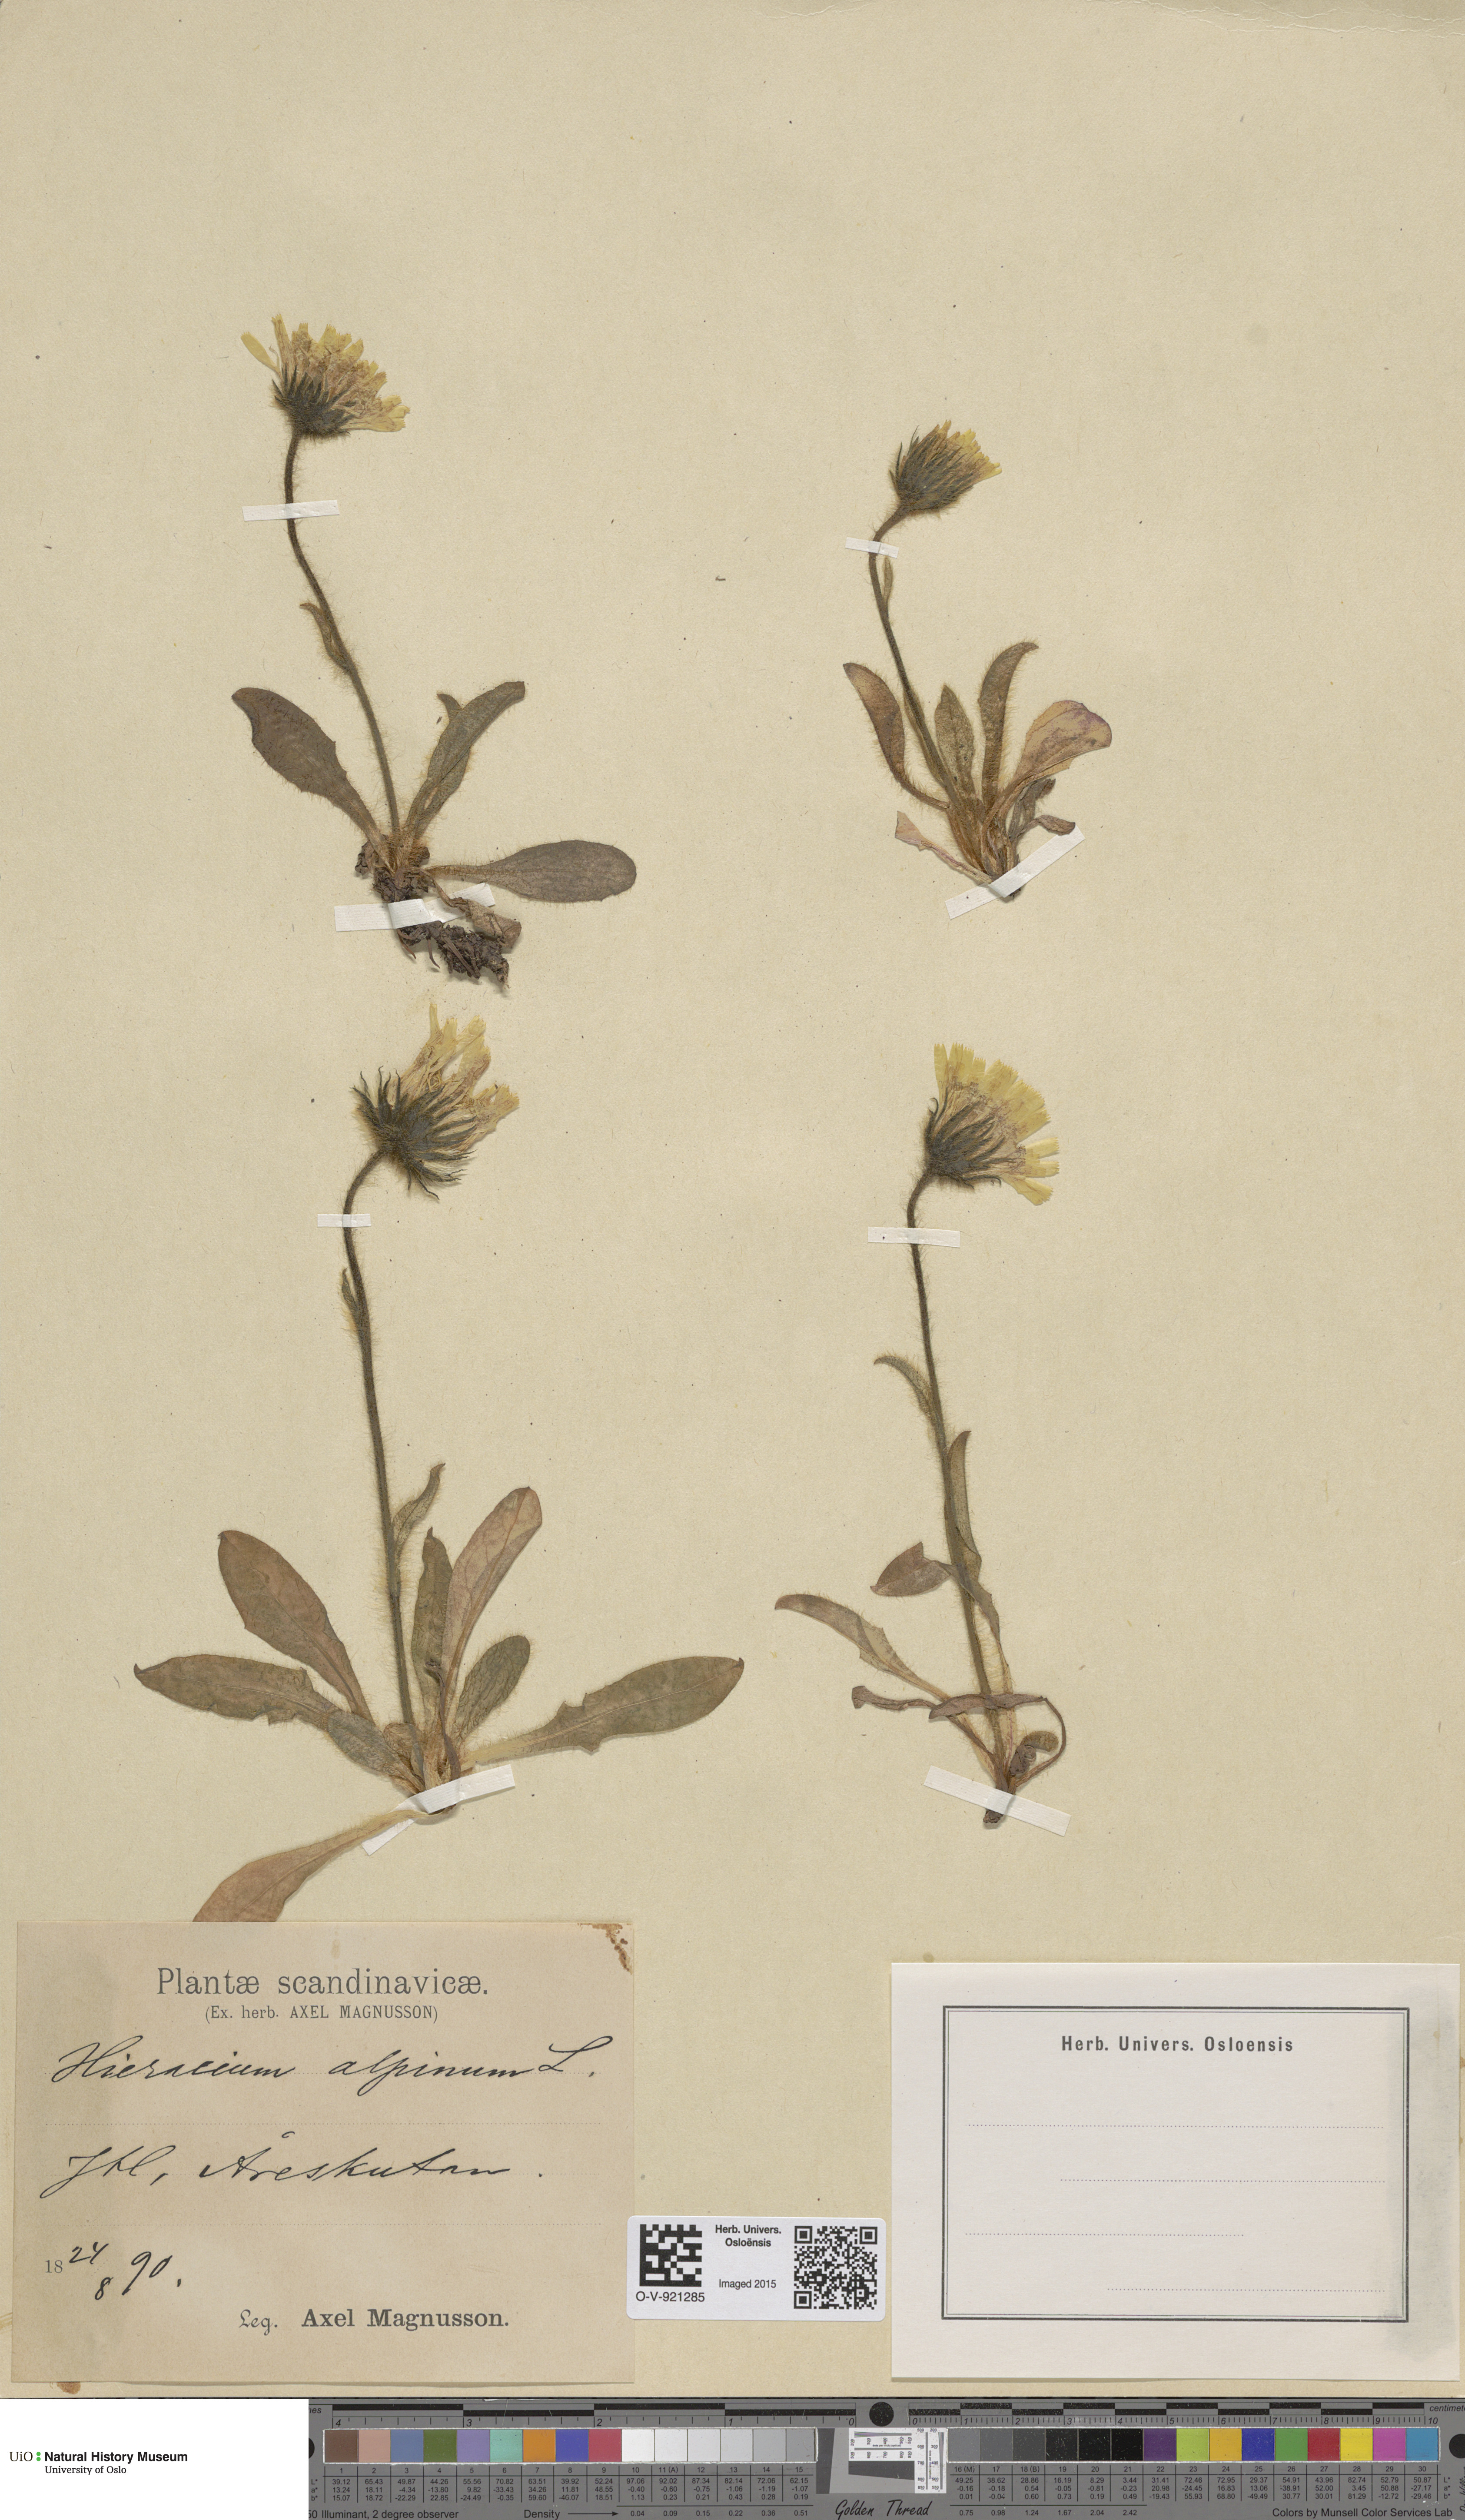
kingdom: Plantae
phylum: Tracheophyta
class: Magnoliopsida
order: Asterales
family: Asteraceae
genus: Hieracium
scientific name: Hieracium alpinum
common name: Alpine hawkweed
